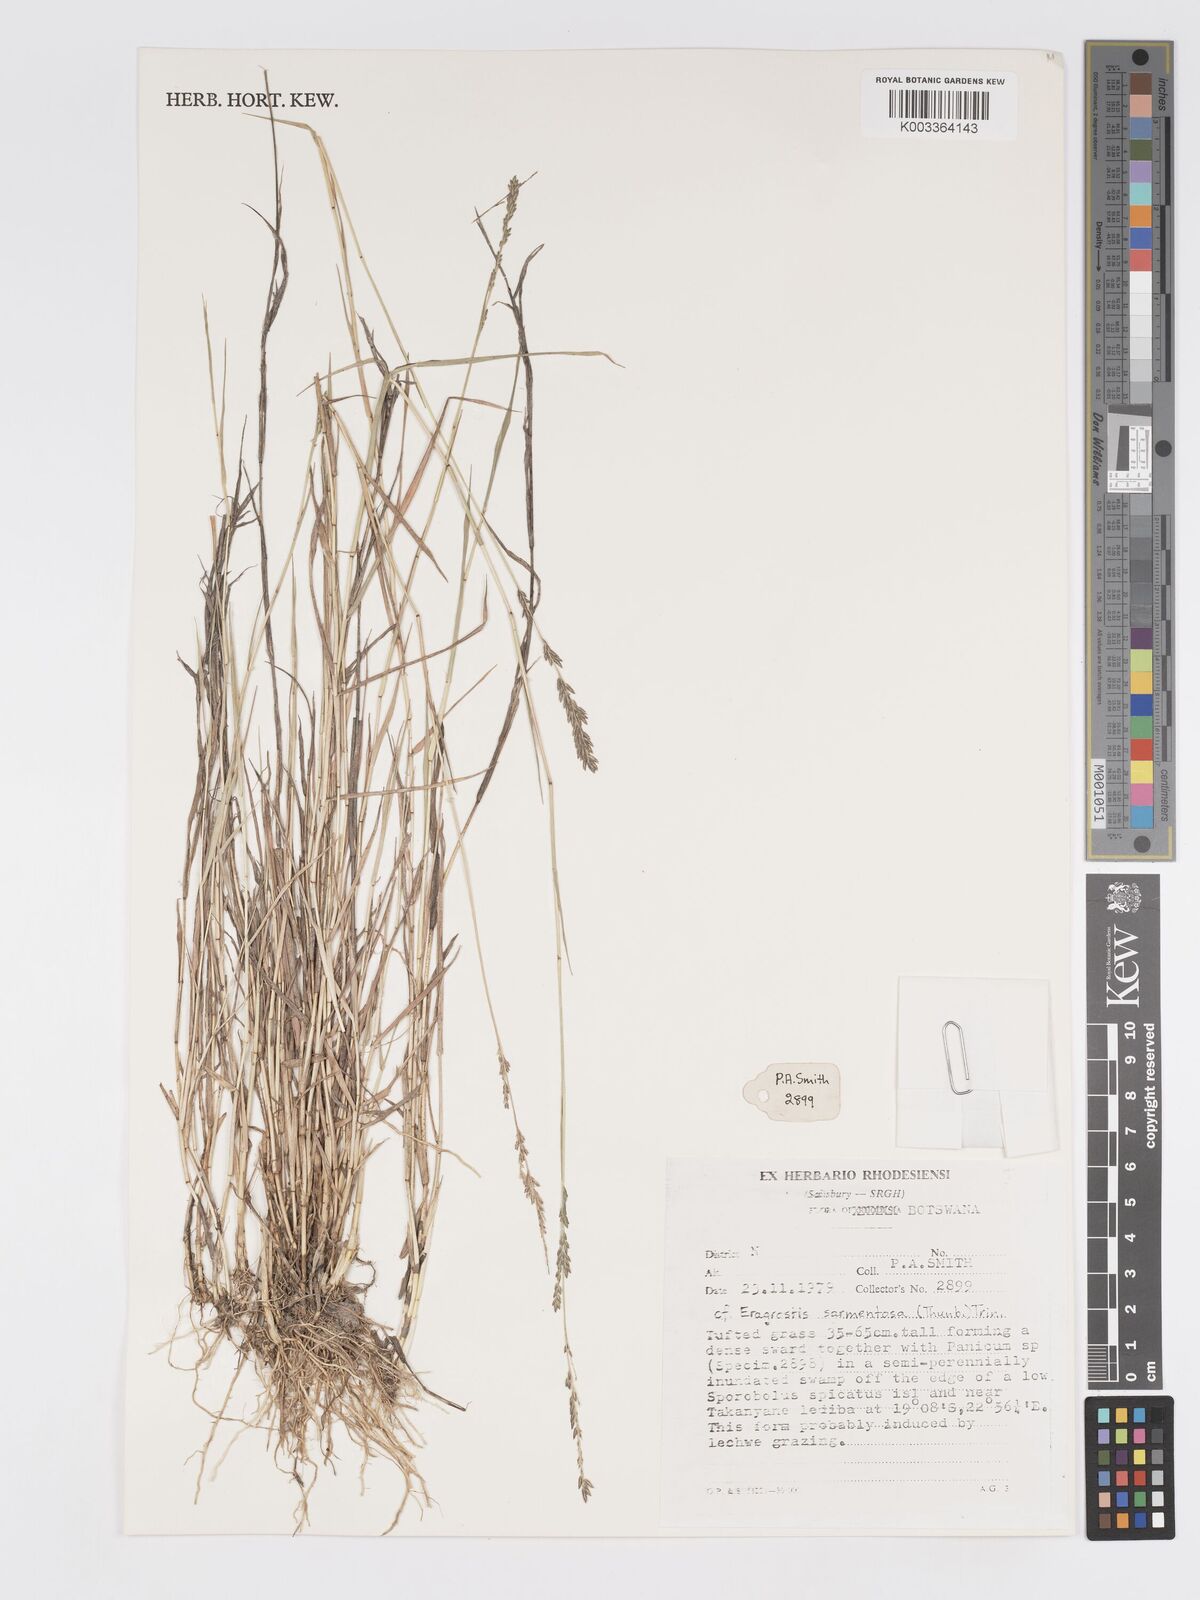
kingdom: Plantae
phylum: Tracheophyta
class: Liliopsida
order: Poales
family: Poaceae
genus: Eragrostis
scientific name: Eragrostis sarmentosa
